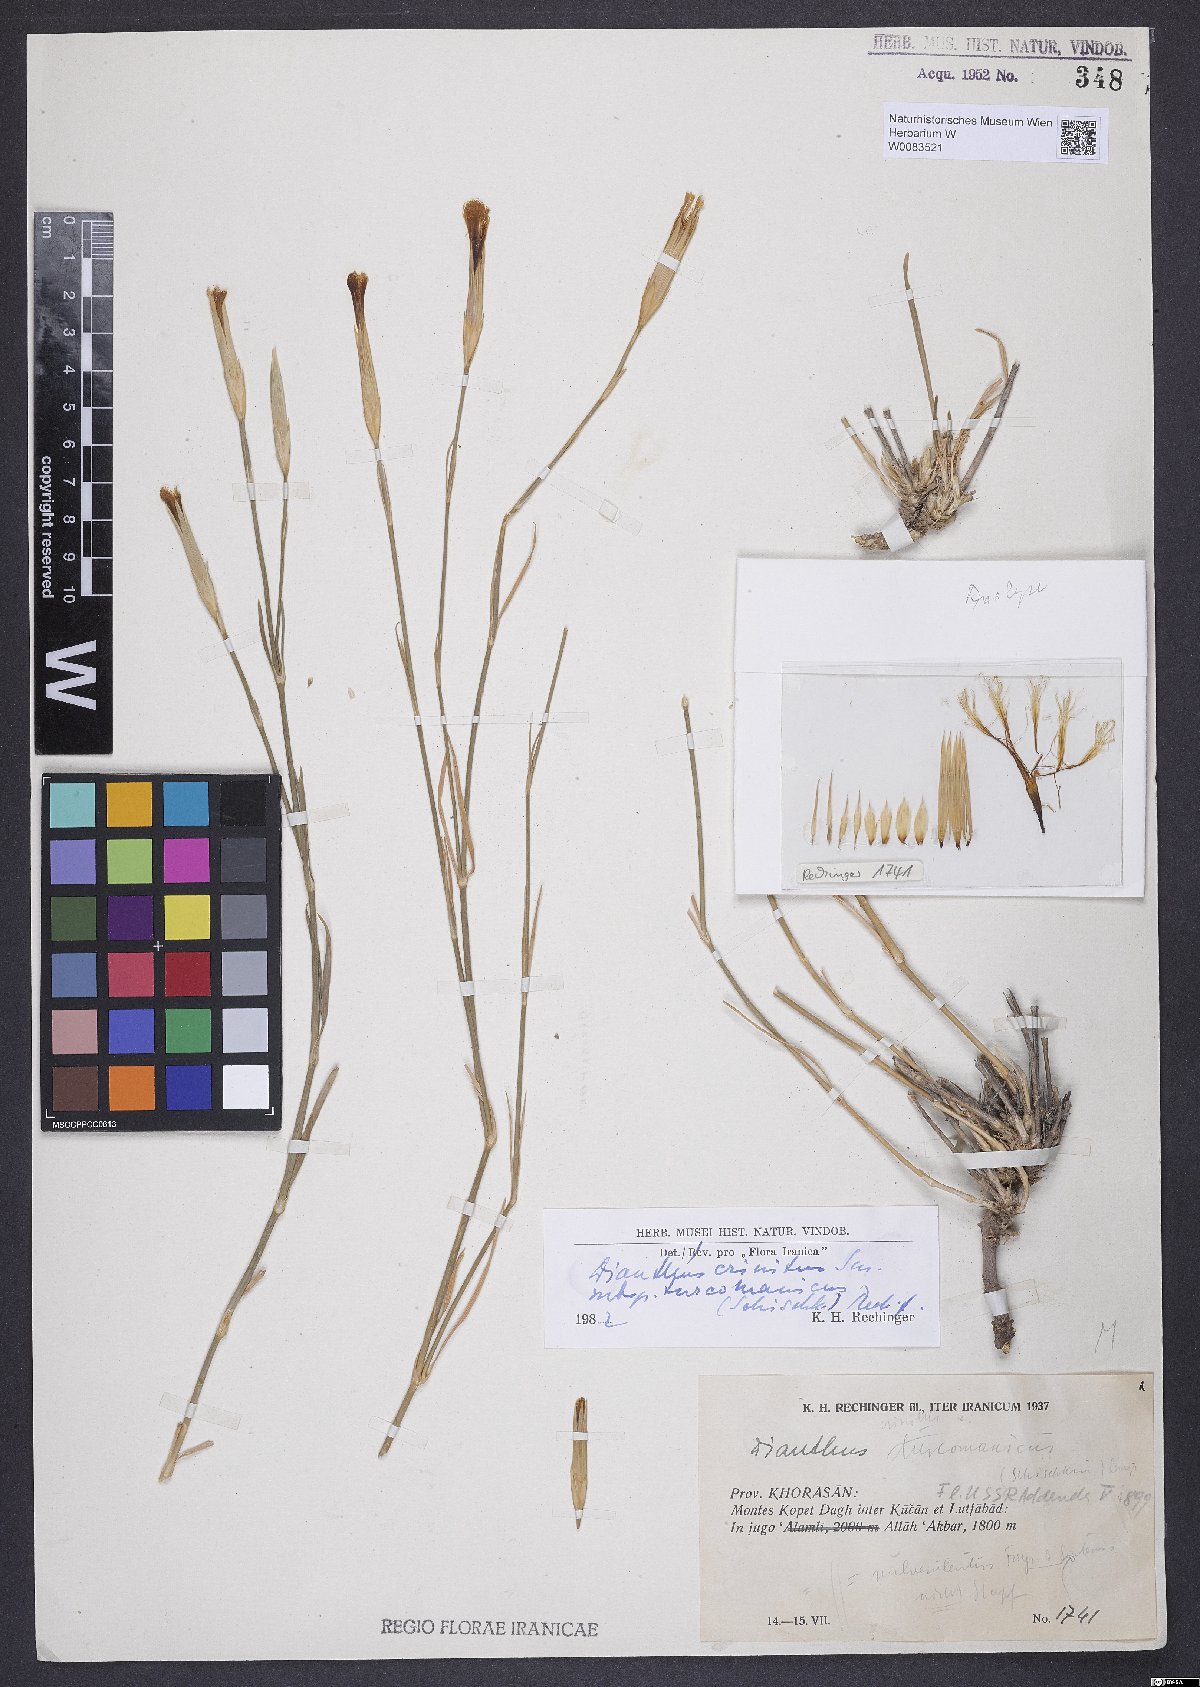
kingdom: Plantae
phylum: Tracheophyta
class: Magnoliopsida
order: Caryophyllales
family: Caryophyllaceae
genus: Dianthus
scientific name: Dianthus turkestanicus
